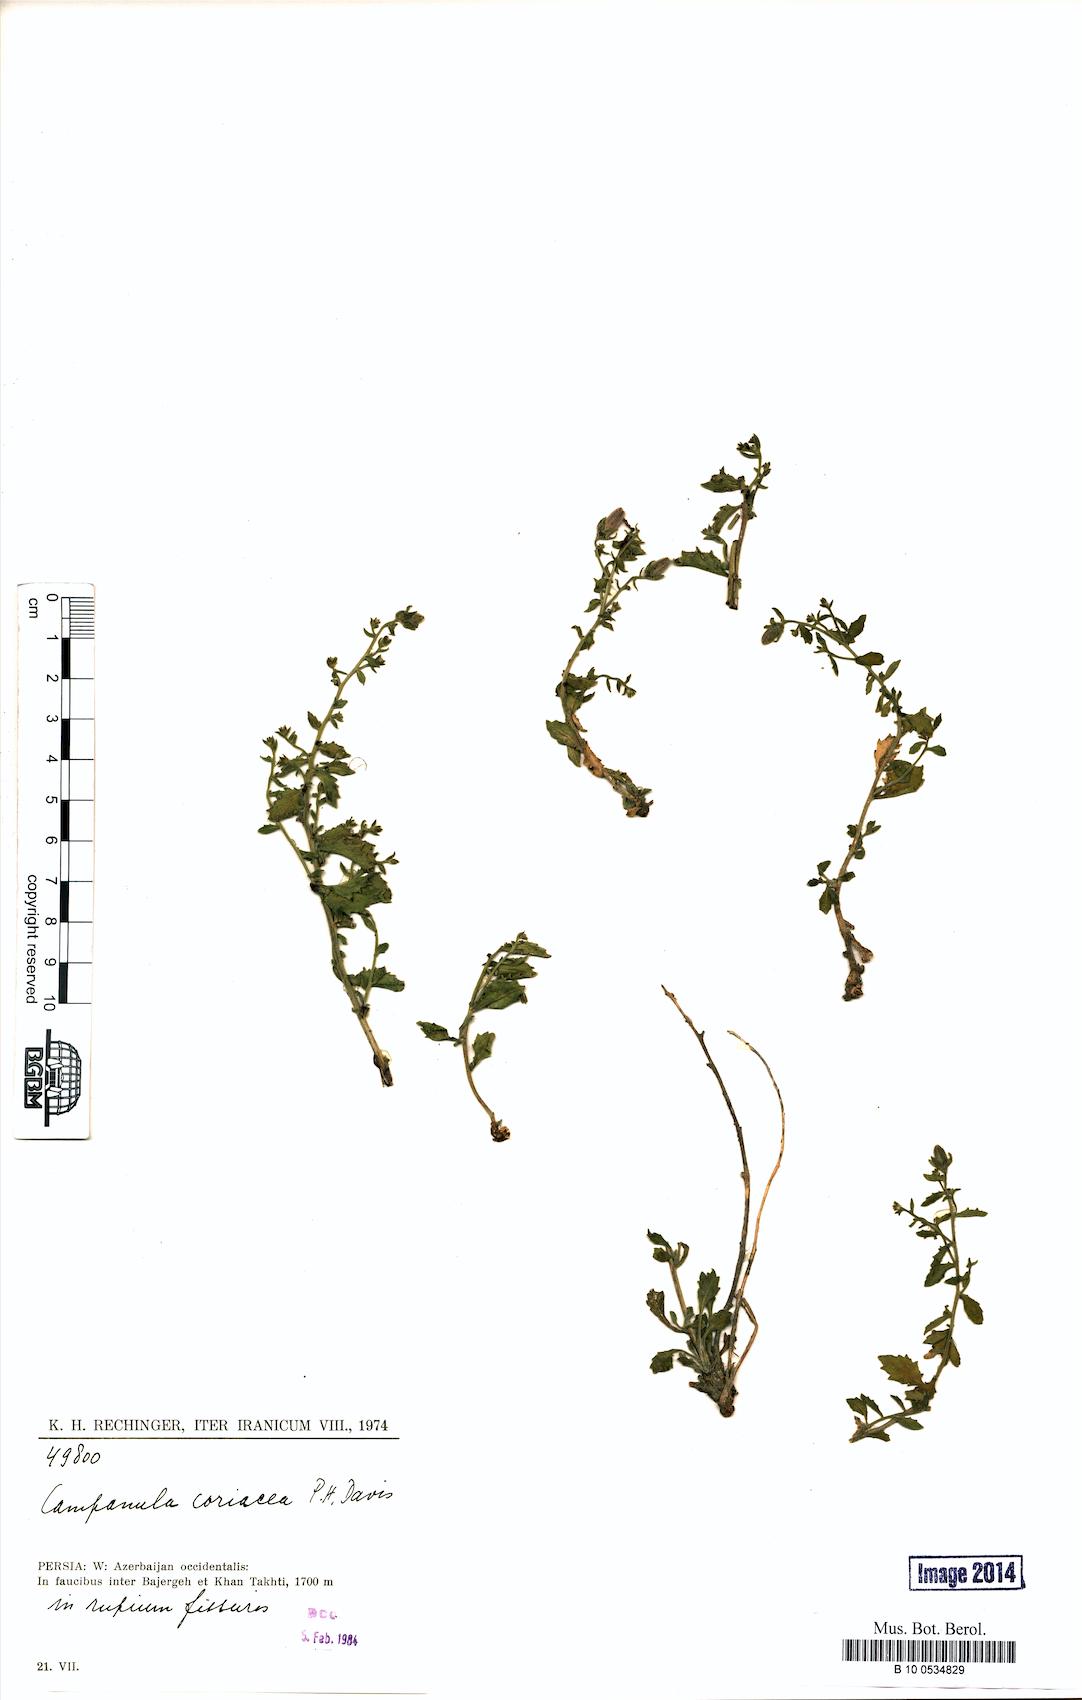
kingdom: Plantae
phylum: Tracheophyta
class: Magnoliopsida
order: Asterales
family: Campanulaceae
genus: Campanula
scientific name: Campanula coriacea
